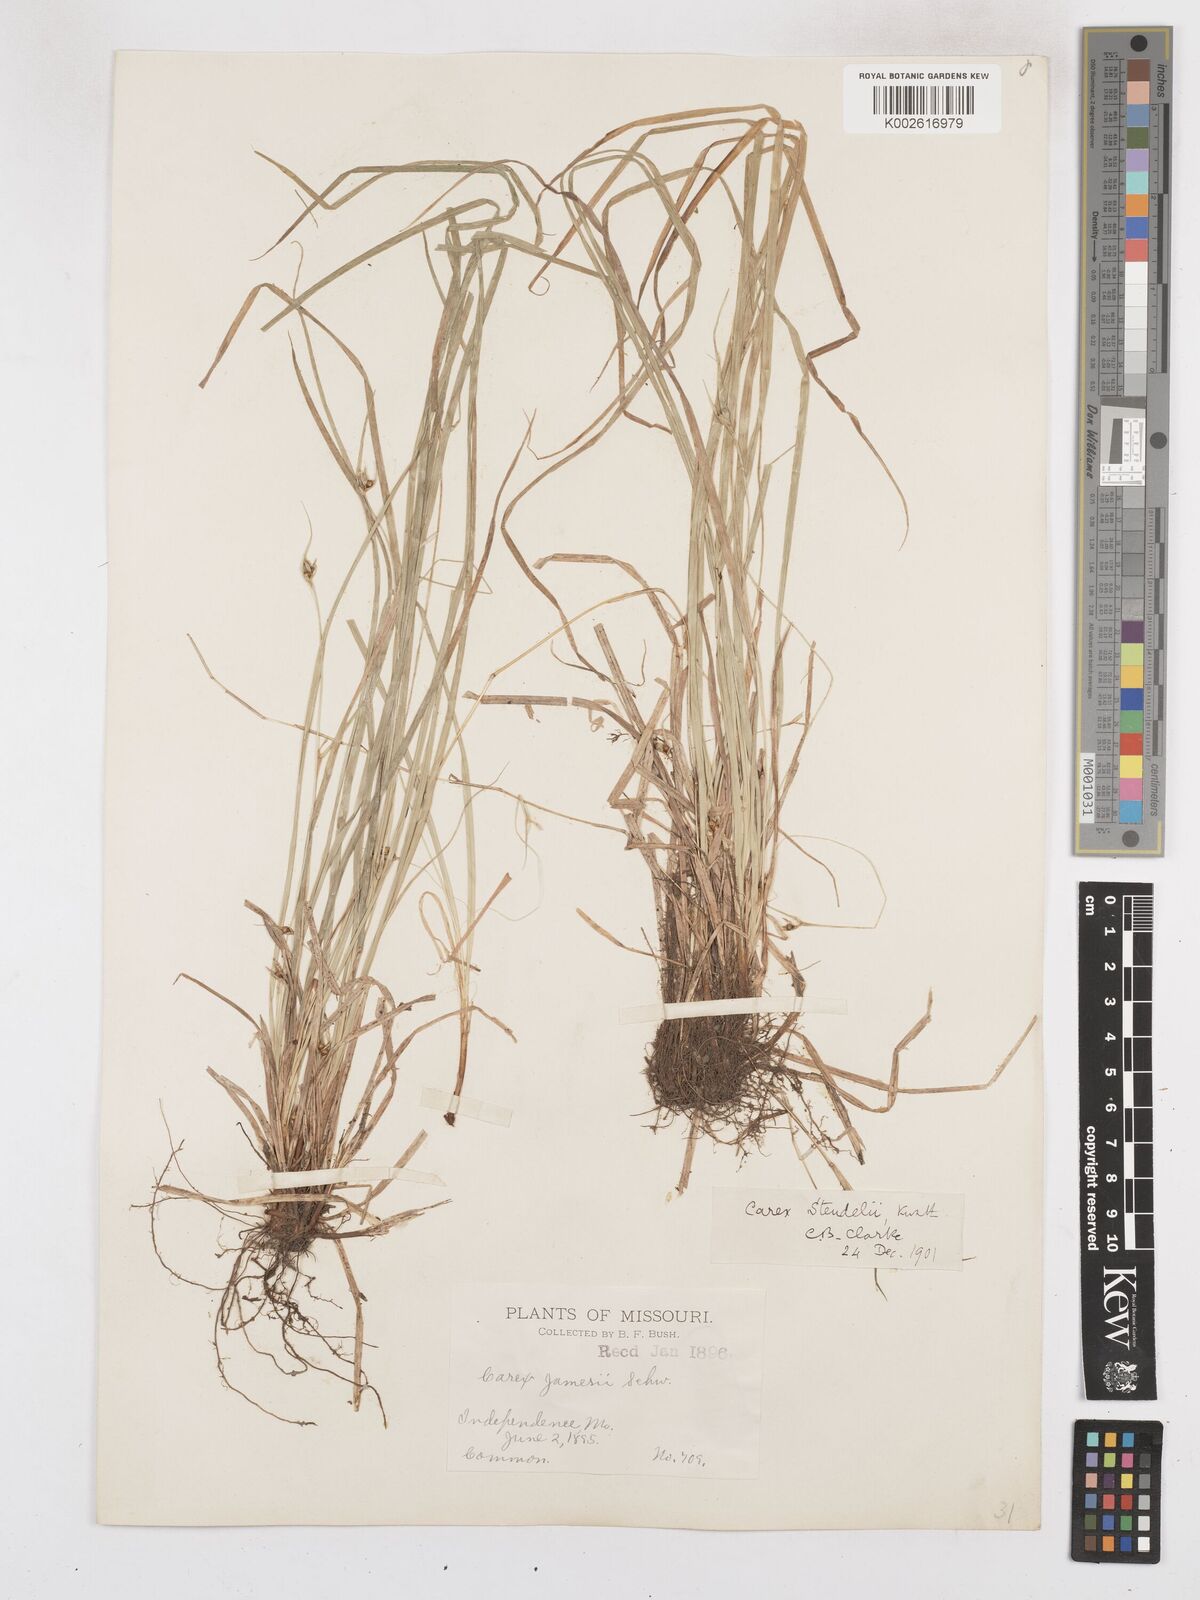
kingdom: Plantae
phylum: Tracheophyta
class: Liliopsida
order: Poales
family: Cyperaceae
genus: Carex
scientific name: Carex jamesii
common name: Grass sedge
